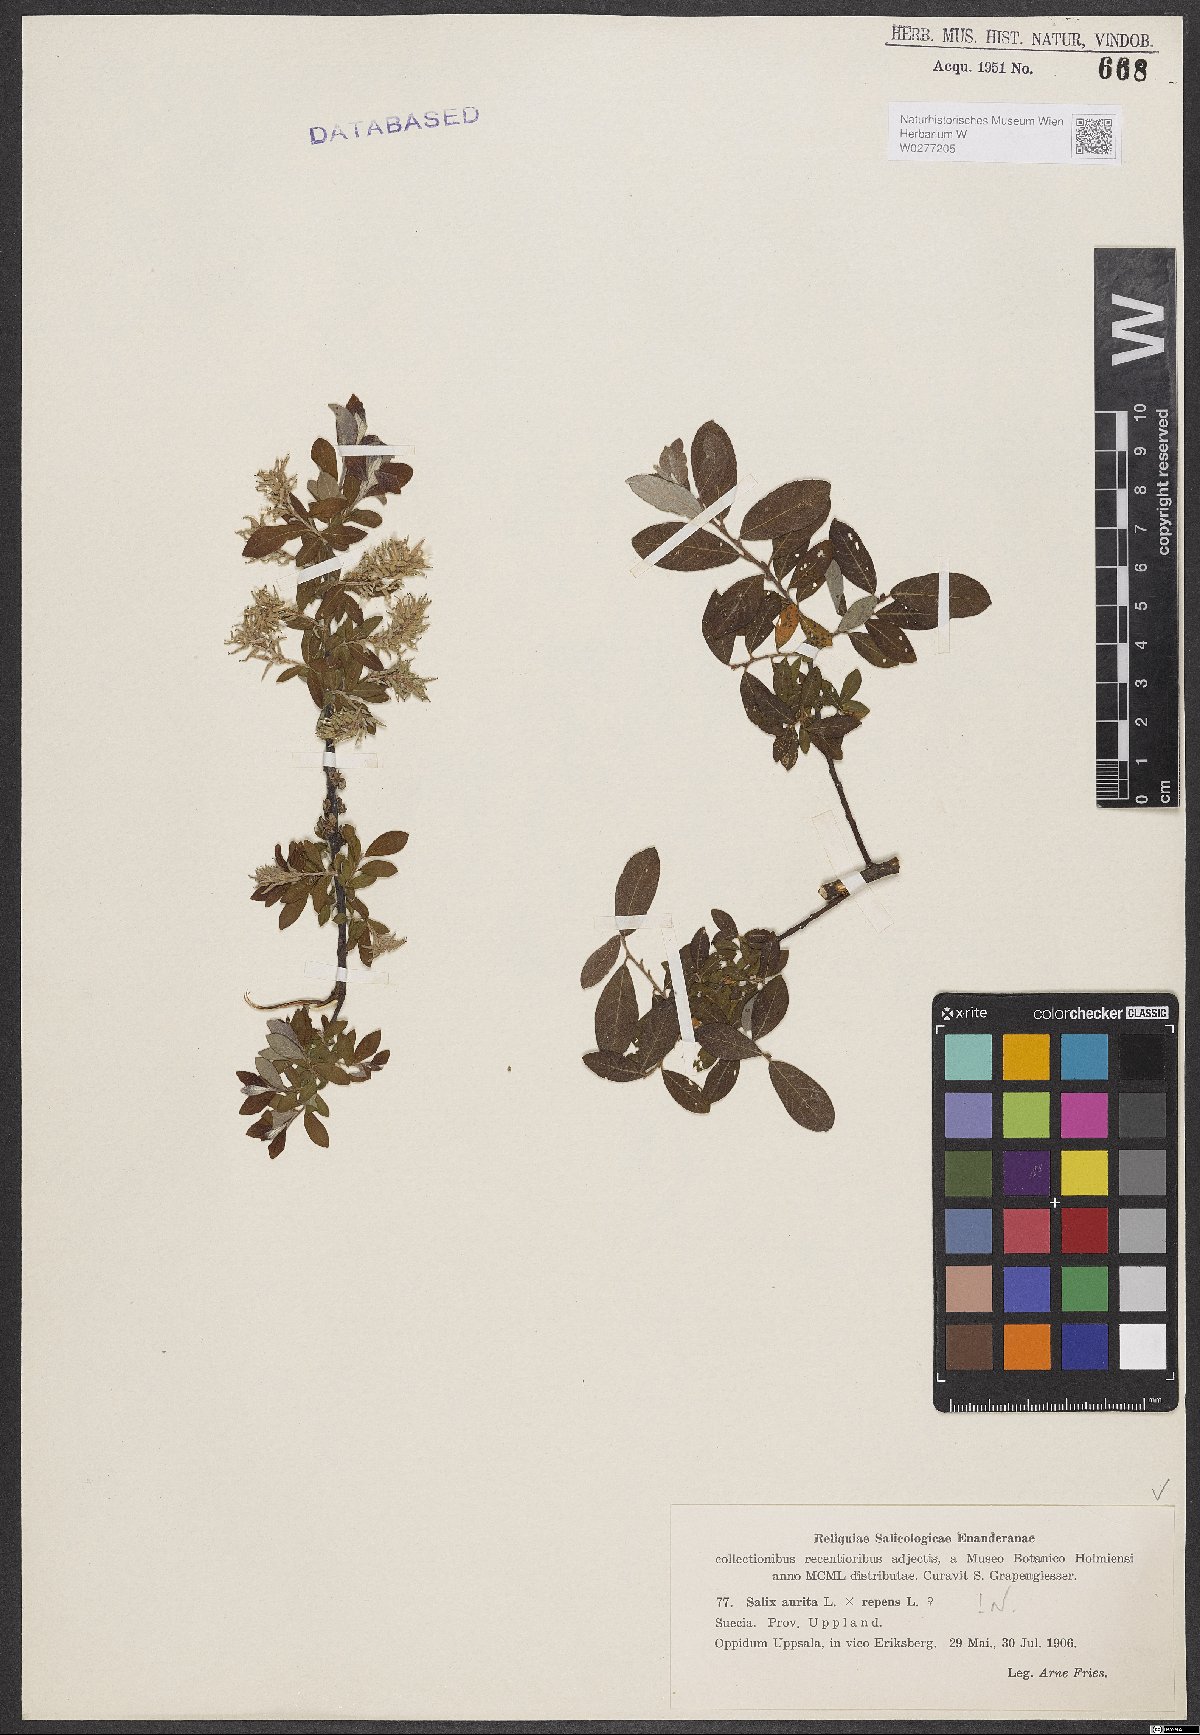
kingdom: Plantae
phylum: Tracheophyta
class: Magnoliopsida
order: Malpighiales
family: Salicaceae
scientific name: Salicaceae
